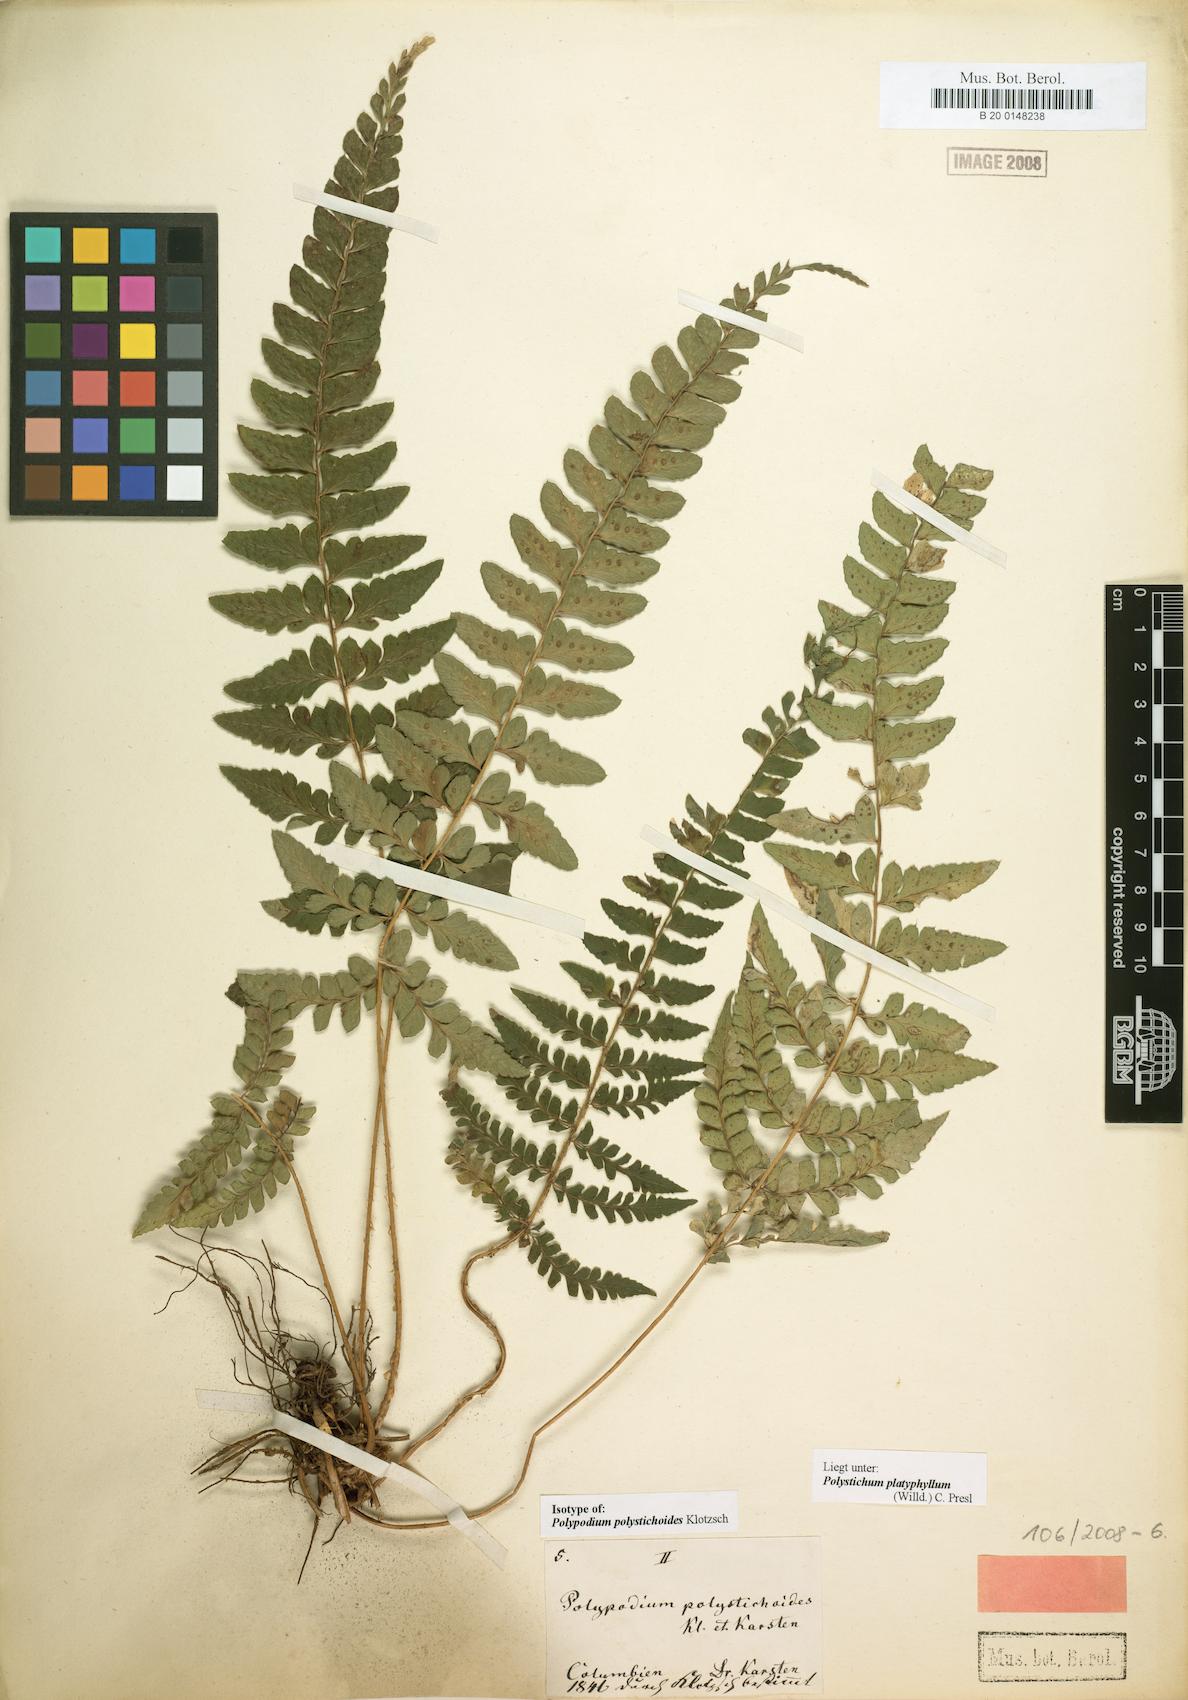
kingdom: Plantae
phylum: Tracheophyta
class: Polypodiopsida
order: Polypodiales
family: Dryopteridaceae
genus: Polystichum
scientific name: Polystichum platyphyllum
